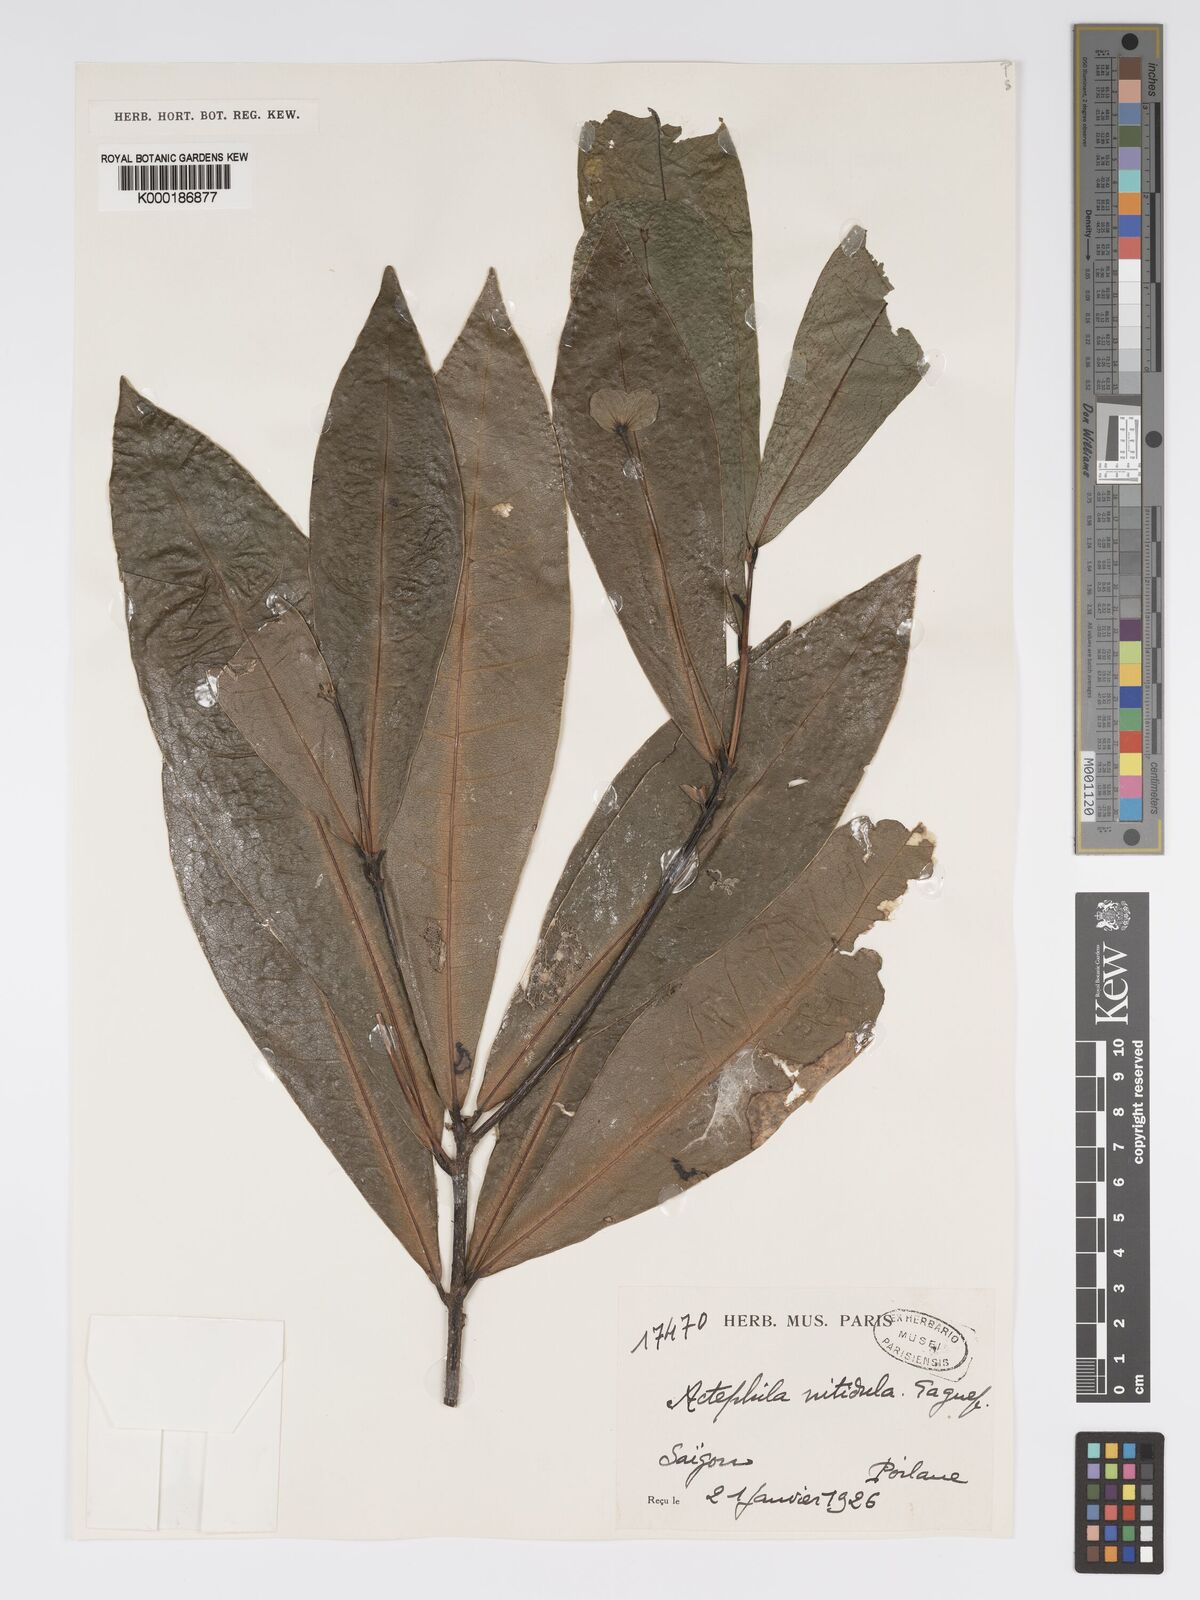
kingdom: Plantae
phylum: Tracheophyta
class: Magnoliopsida
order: Malpighiales
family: Phyllanthaceae
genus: Actephila
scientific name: Actephila nitidula
